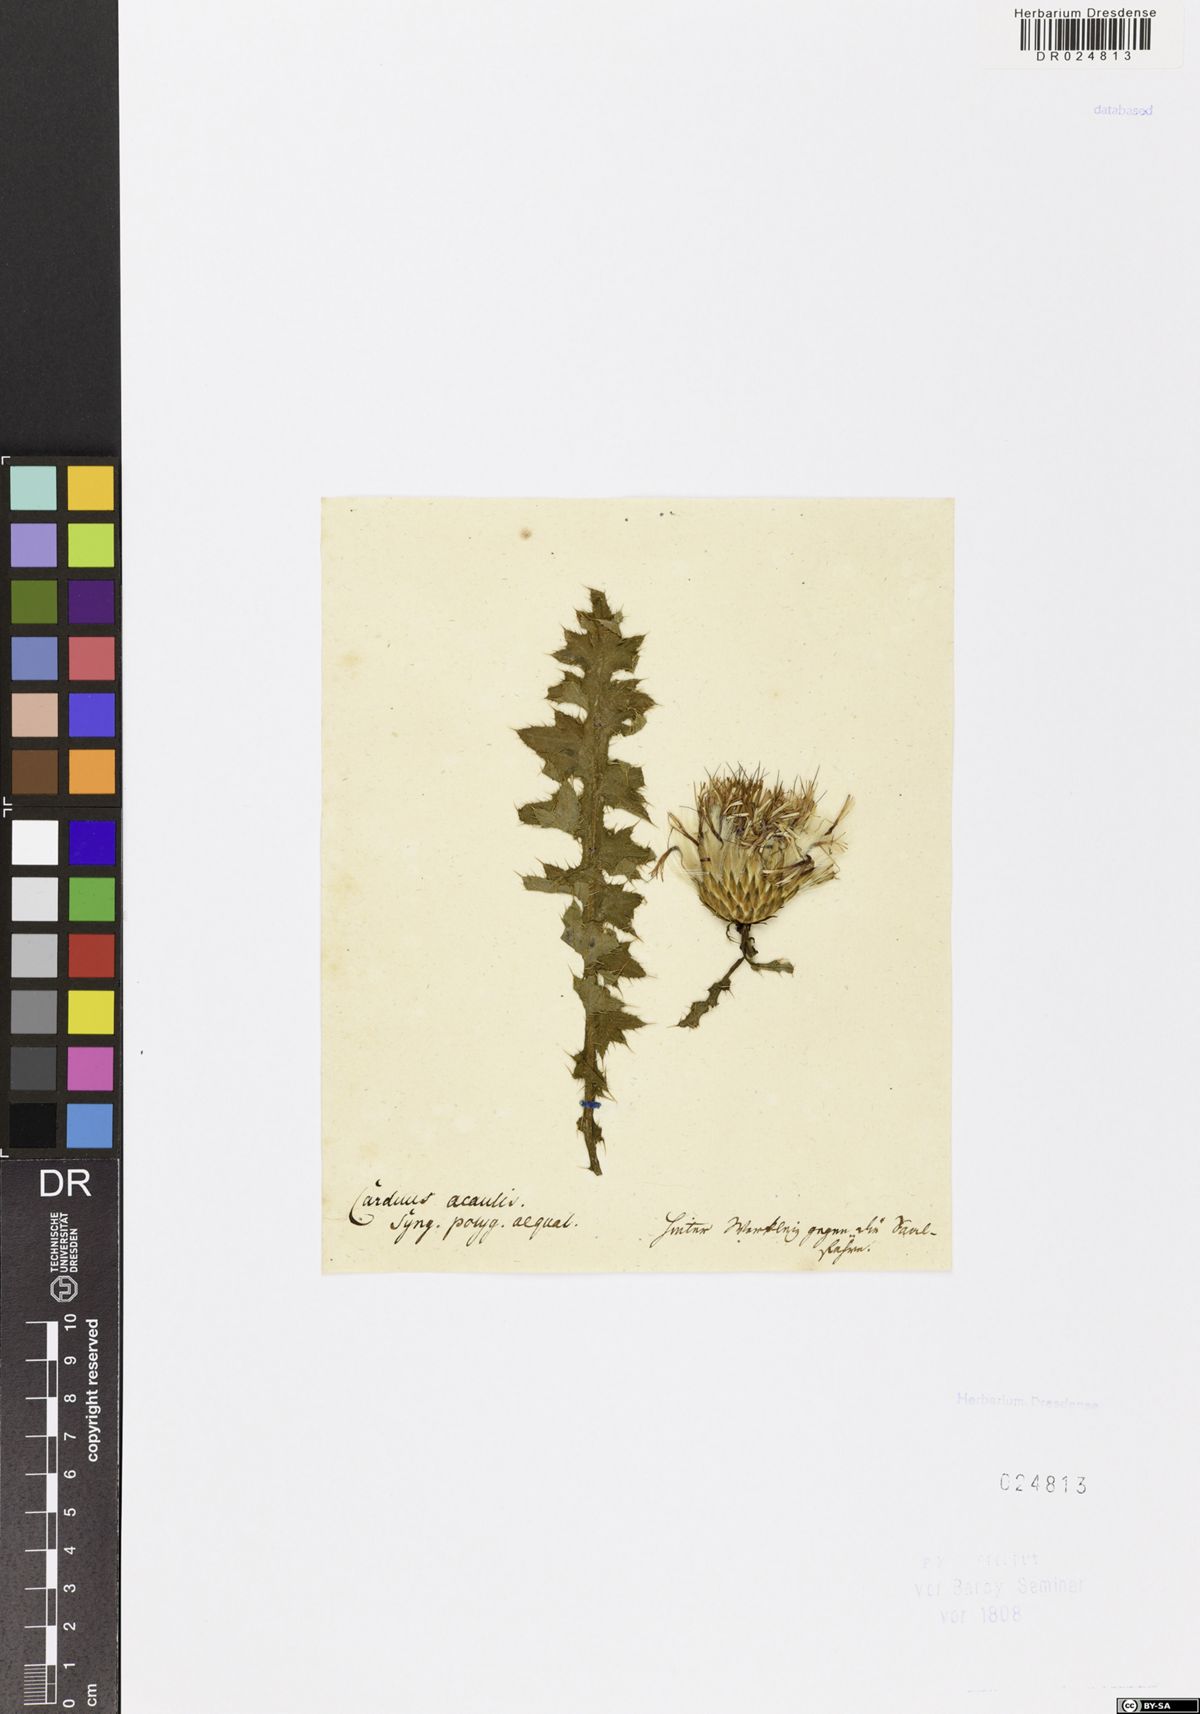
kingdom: Plantae
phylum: Tracheophyta
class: Magnoliopsida
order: Asterales
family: Asteraceae
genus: Cirsium
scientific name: Cirsium acaule
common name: Dwarf thistle
